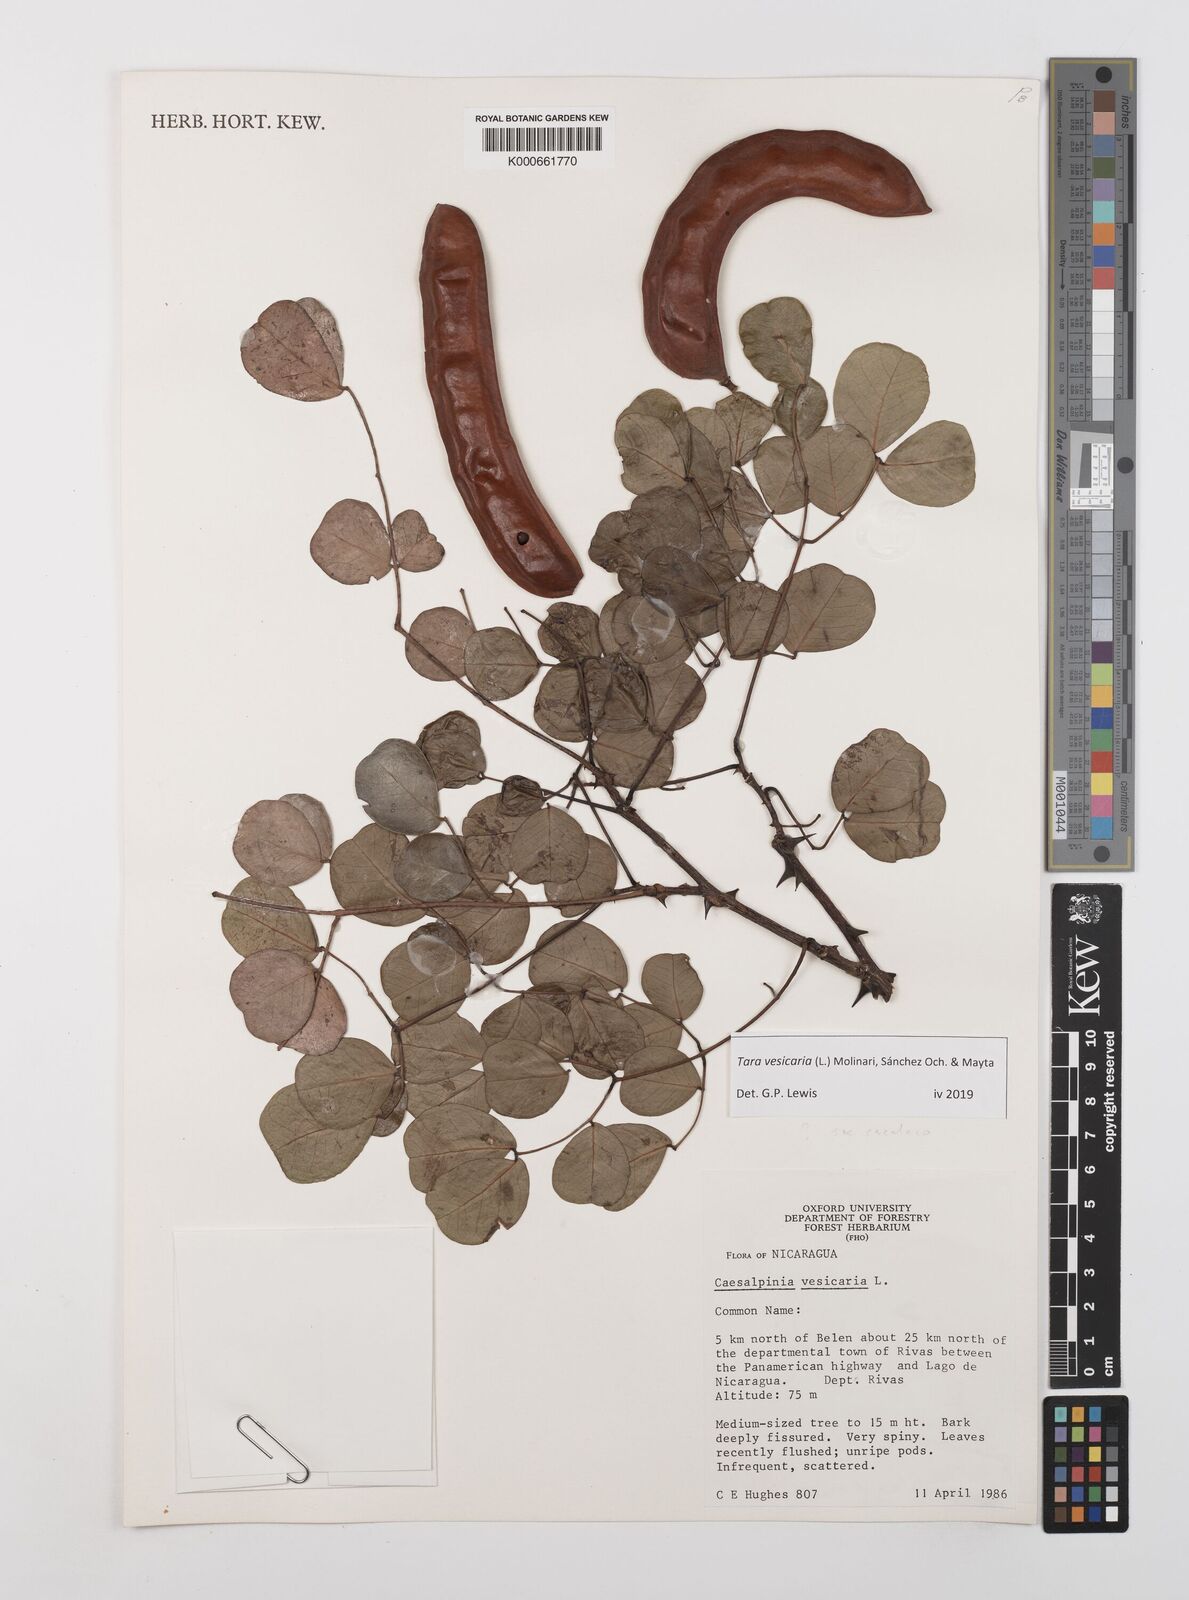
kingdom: Plantae
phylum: Tracheophyta
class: Magnoliopsida
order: Fabales
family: Fabaceae
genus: Tara
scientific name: Tara vesicaria
